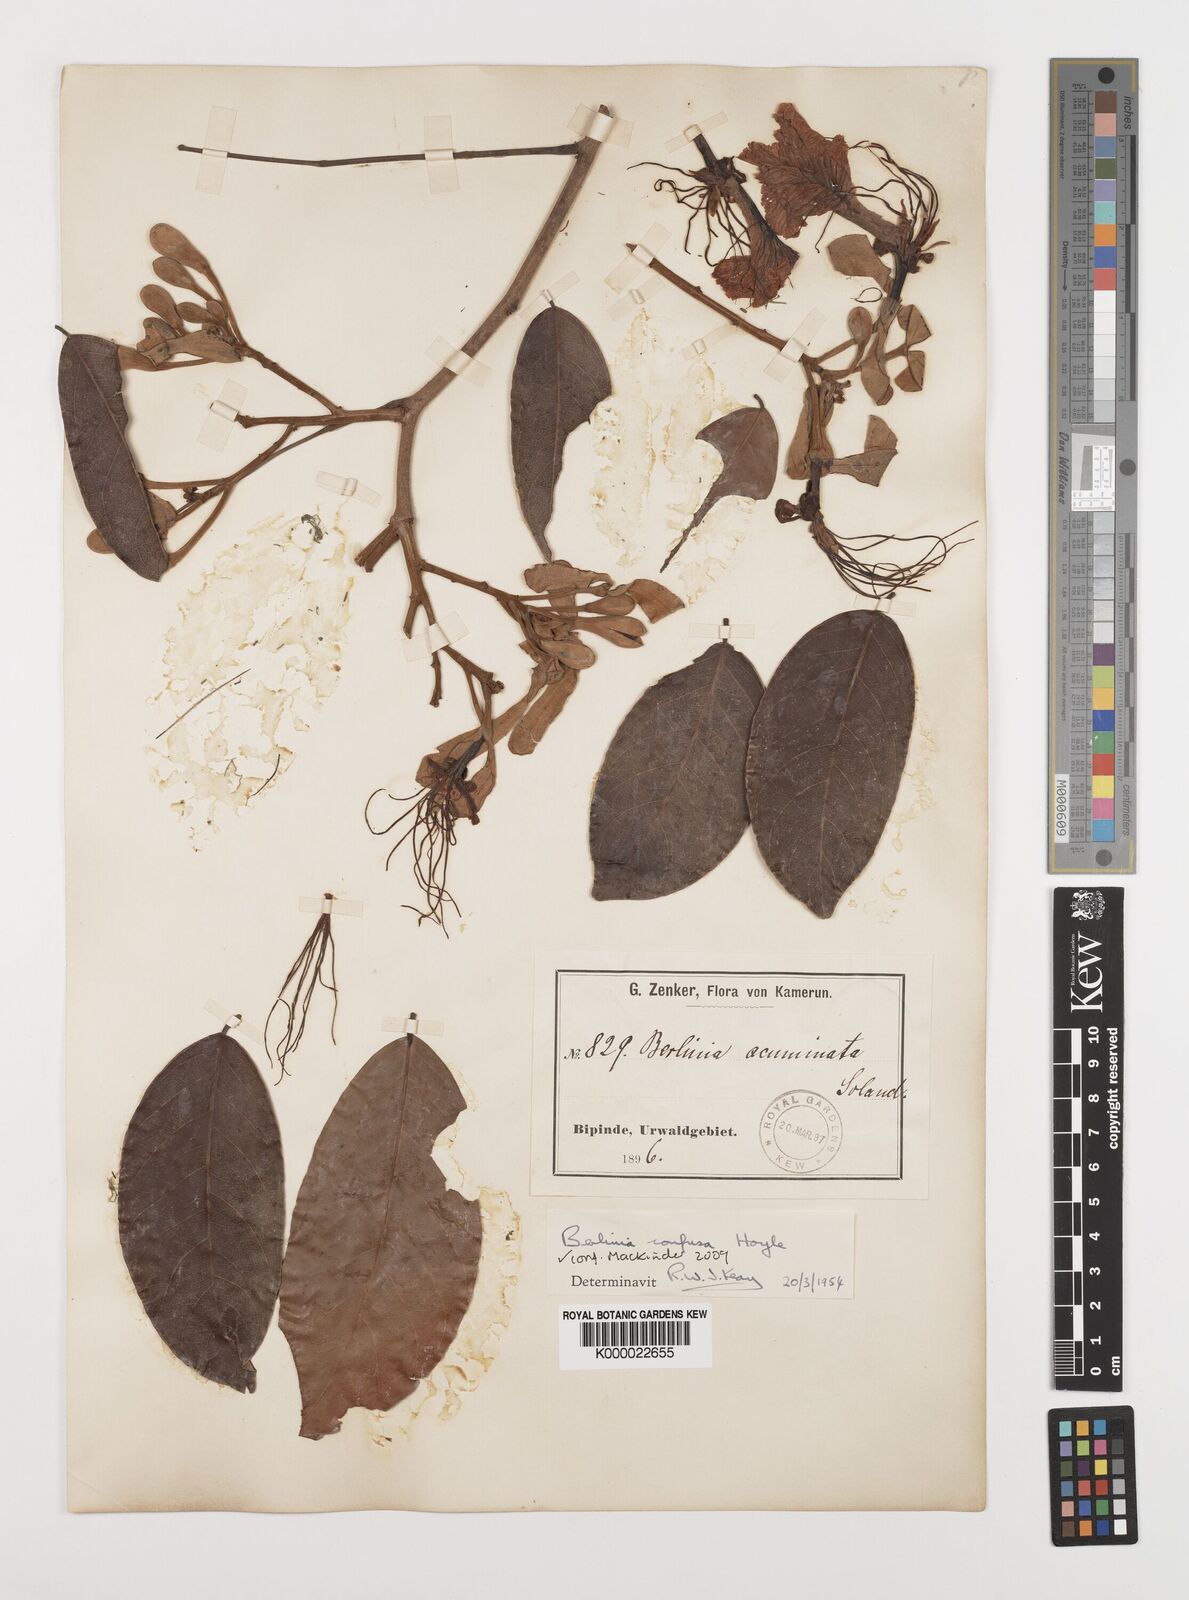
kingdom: Plantae
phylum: Tracheophyta
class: Magnoliopsida
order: Fabales
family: Fabaceae
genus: Berlinia
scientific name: Berlinia confusa
